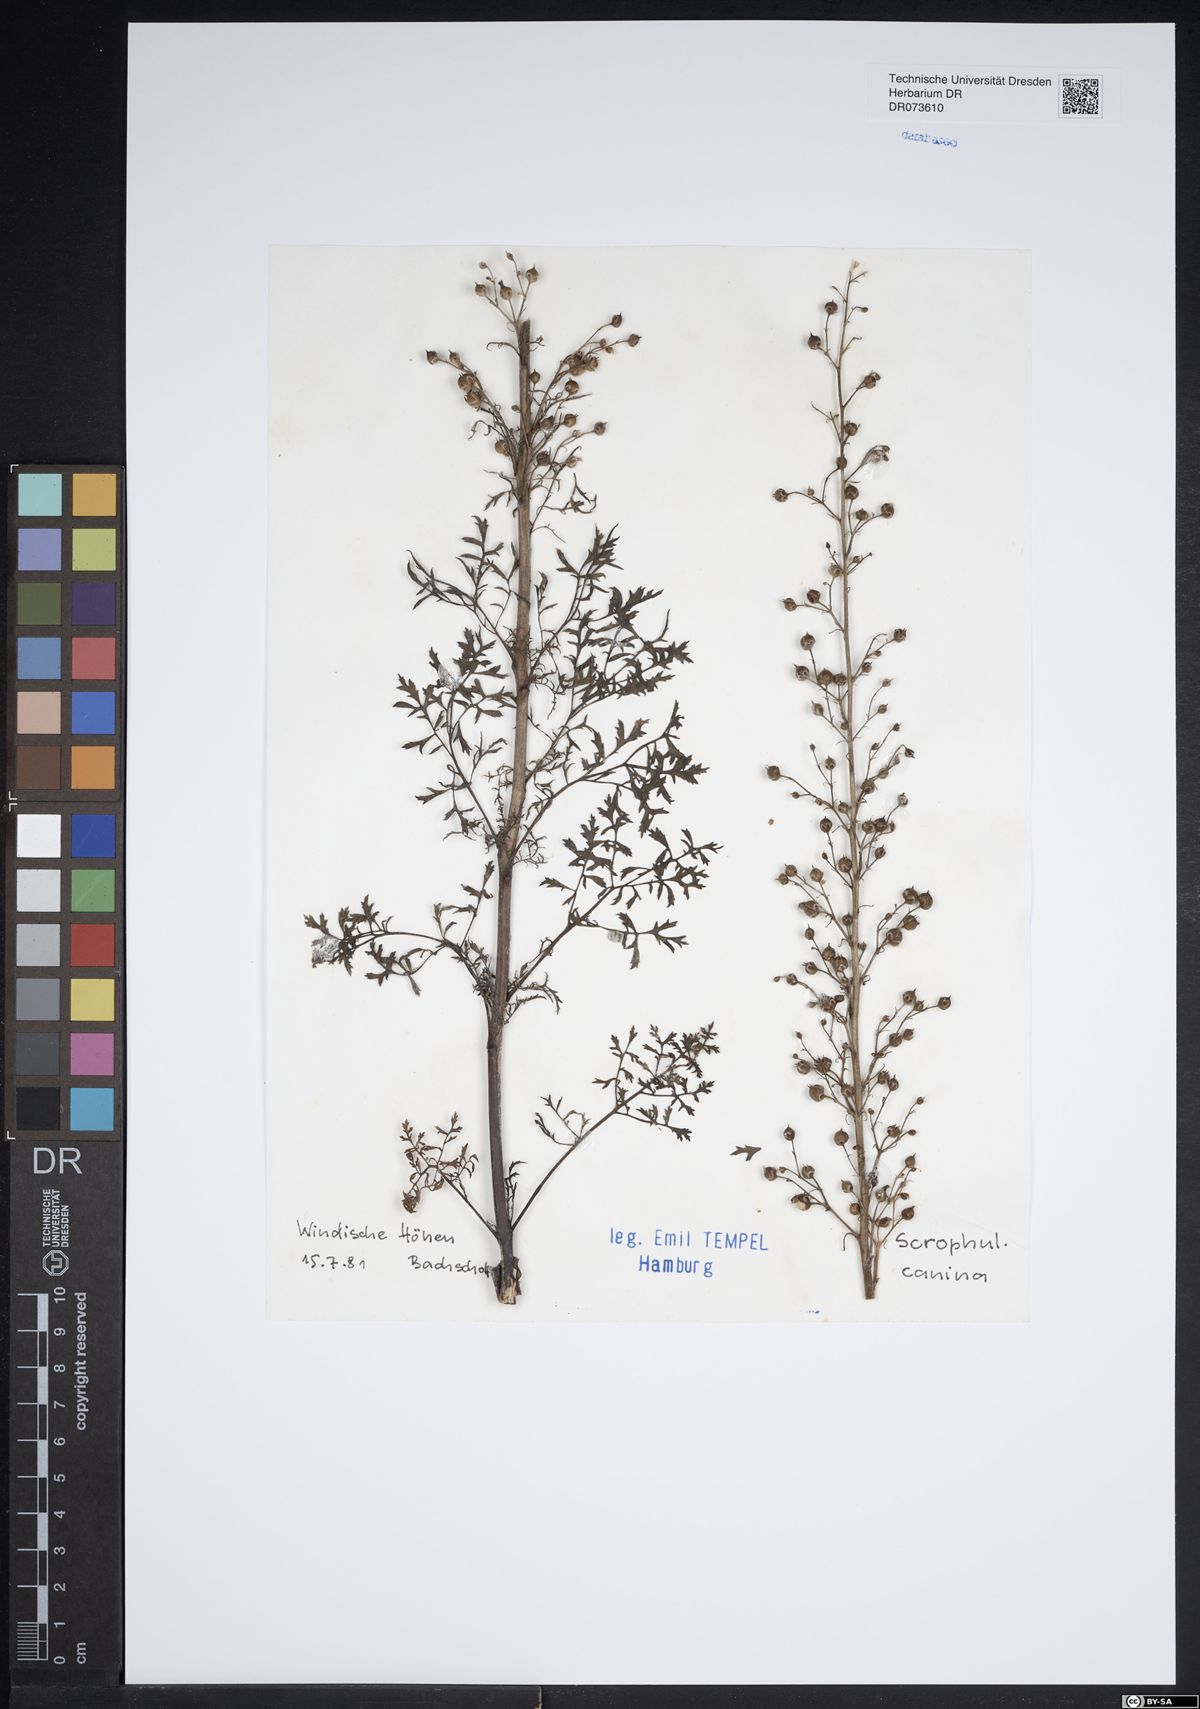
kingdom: Plantae
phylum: Tracheophyta
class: Magnoliopsida
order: Lamiales
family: Scrophulariaceae
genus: Scrophularia
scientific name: Scrophularia canina
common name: French figwort
